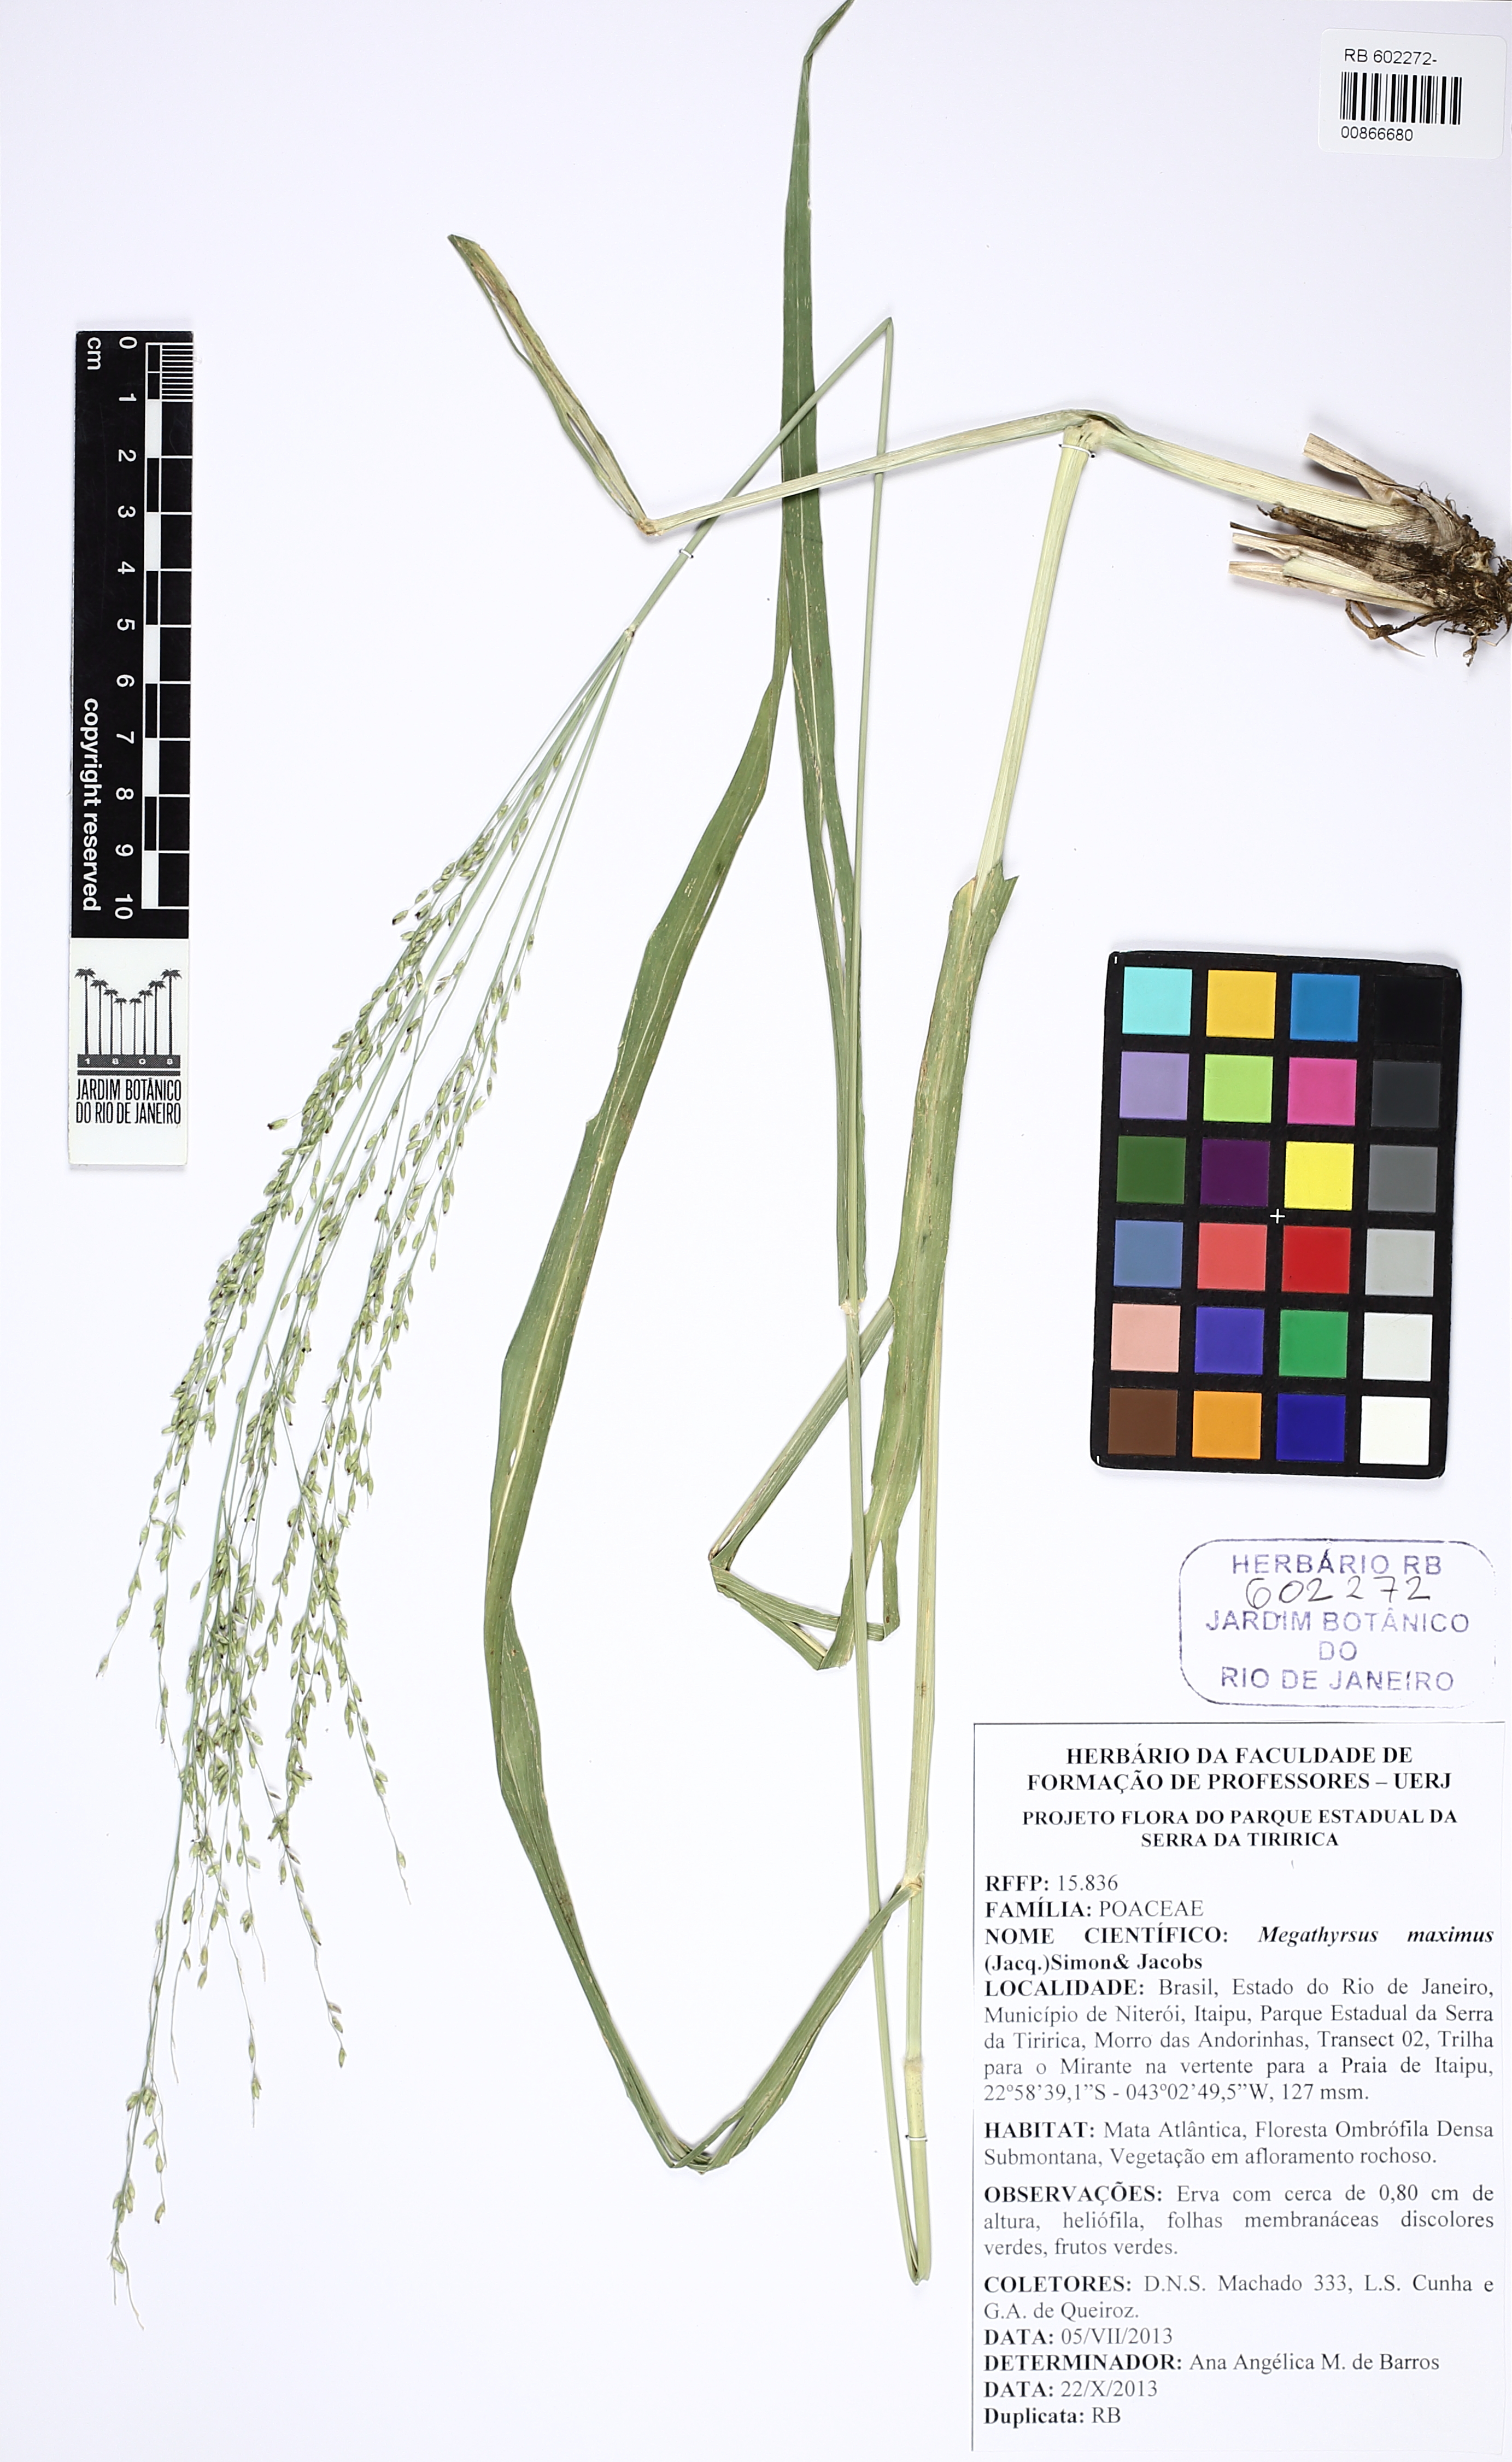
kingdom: Plantae
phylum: Tracheophyta
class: Liliopsida
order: Poales
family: Poaceae
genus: Megathyrsus
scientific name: Megathyrsus maximus
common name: Guineagrass
